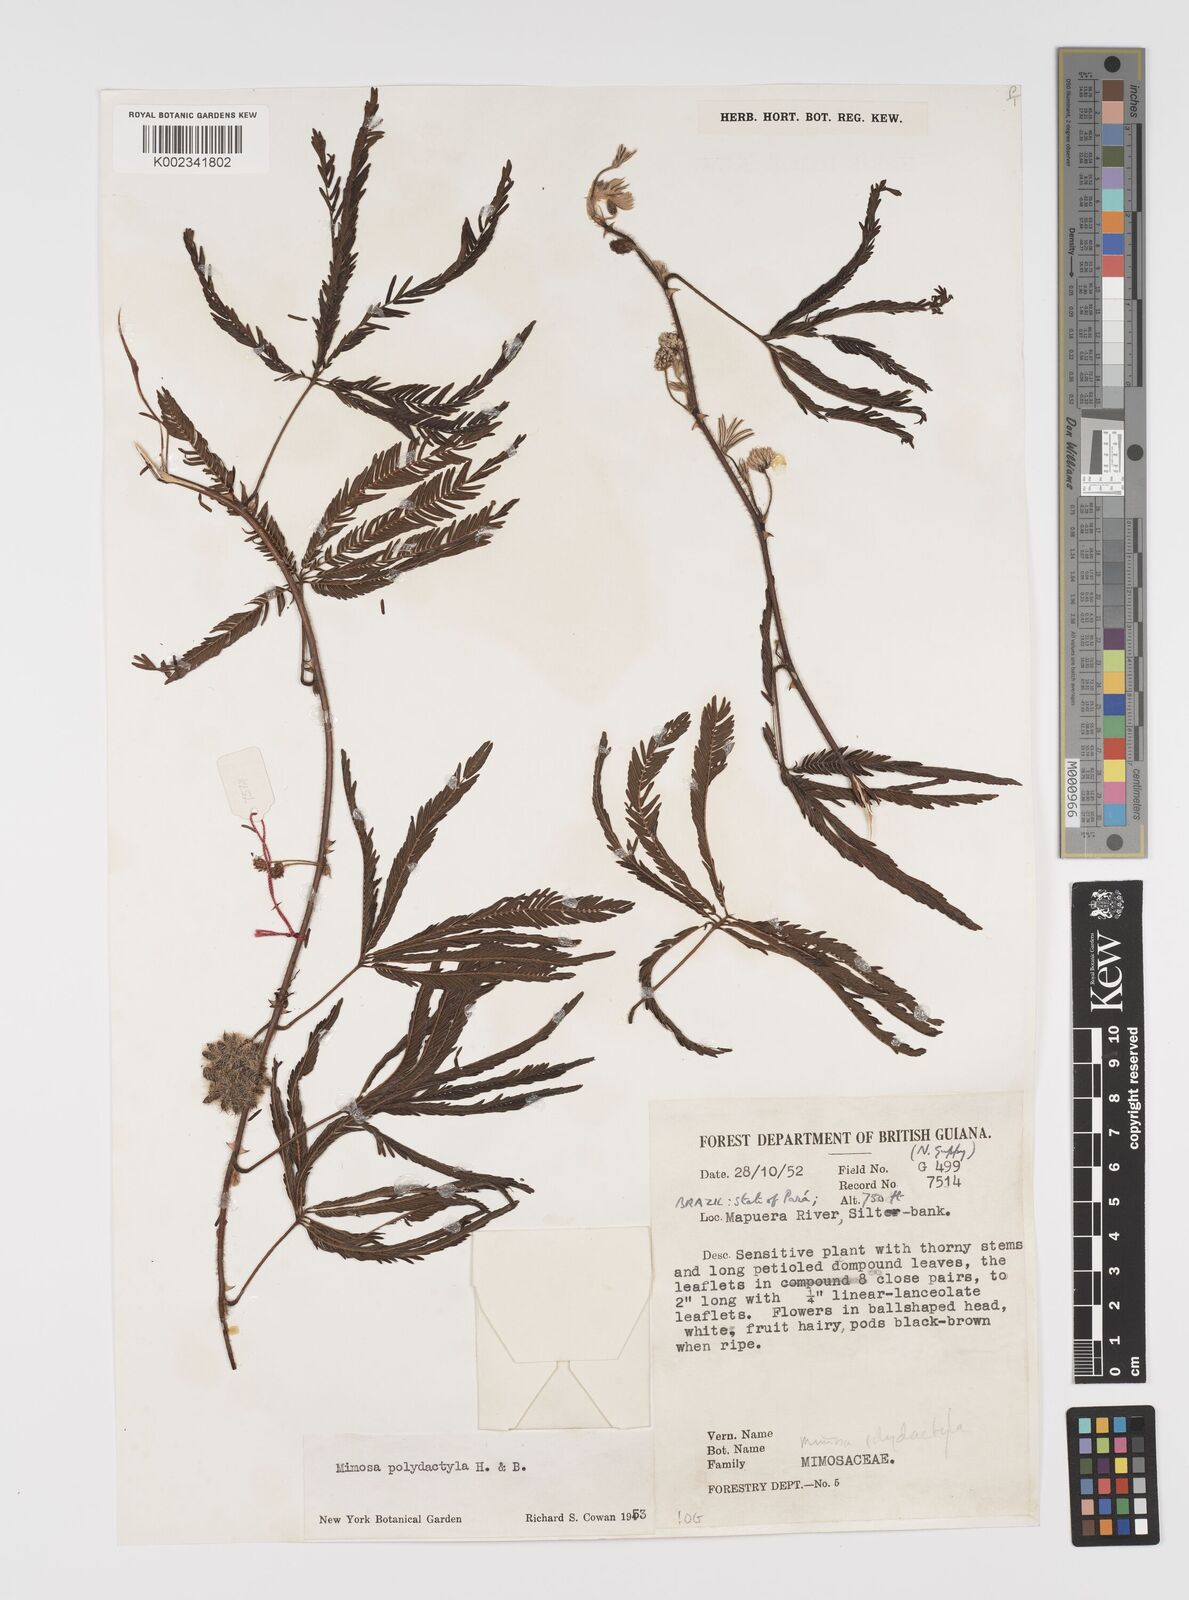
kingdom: Plantae
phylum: Tracheophyta
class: Magnoliopsida
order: Fabales
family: Fabaceae
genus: Mimosa
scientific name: Mimosa polydactyla
